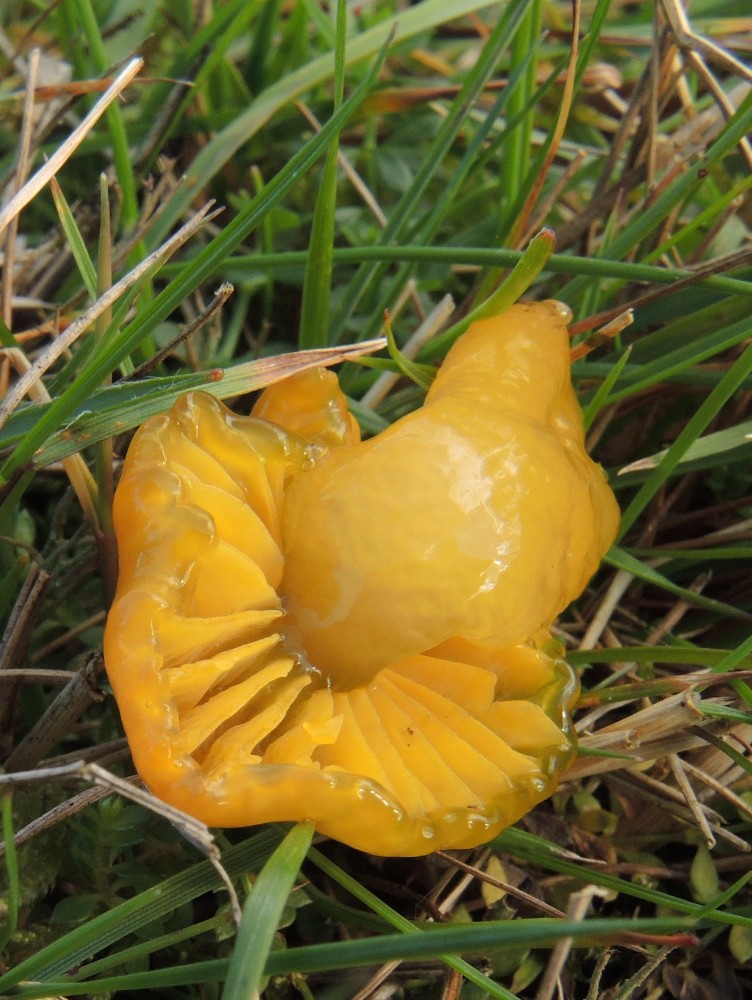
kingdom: Fungi
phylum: Basidiomycota
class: Agaricomycetes
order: Agaricales
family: Hygrophoraceae
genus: Gliophorus
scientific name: Gliophorus psittacinus
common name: papegøje-vokshat
